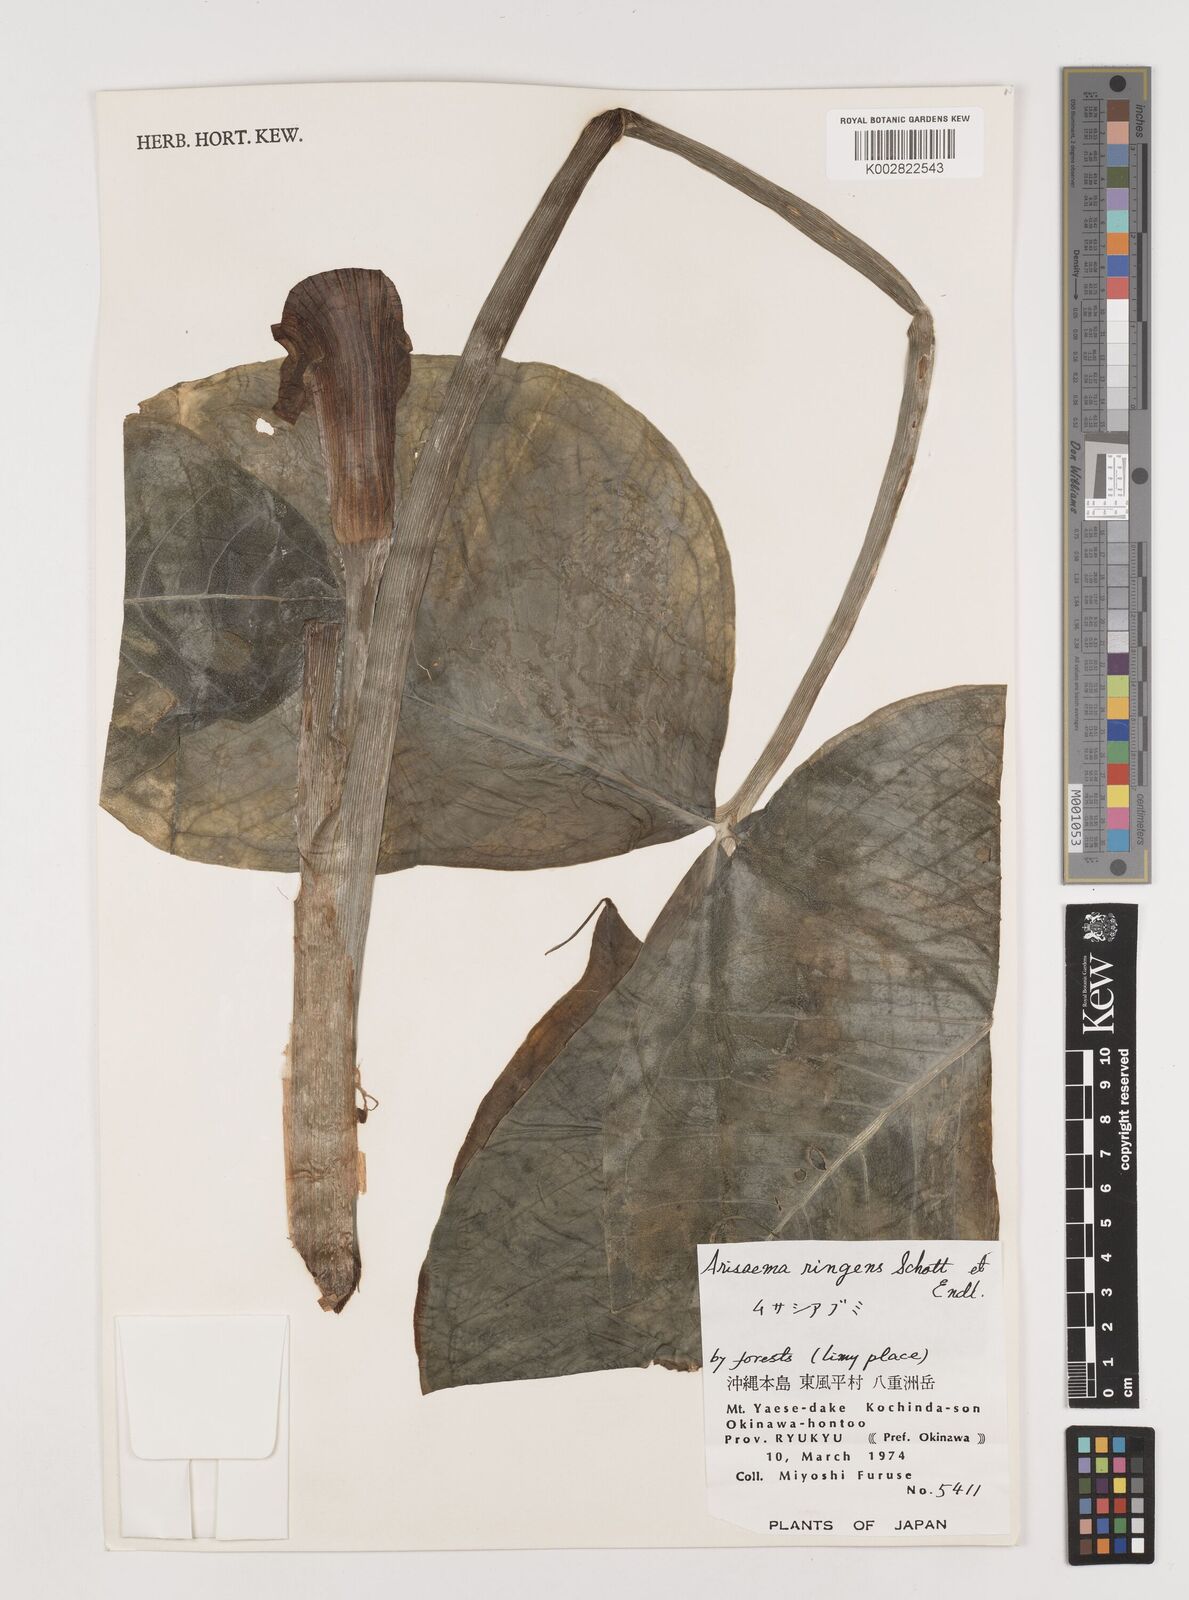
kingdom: Plantae
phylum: Tracheophyta
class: Liliopsida
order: Alismatales
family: Araceae
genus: Arisaema
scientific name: Arisaema ringens
